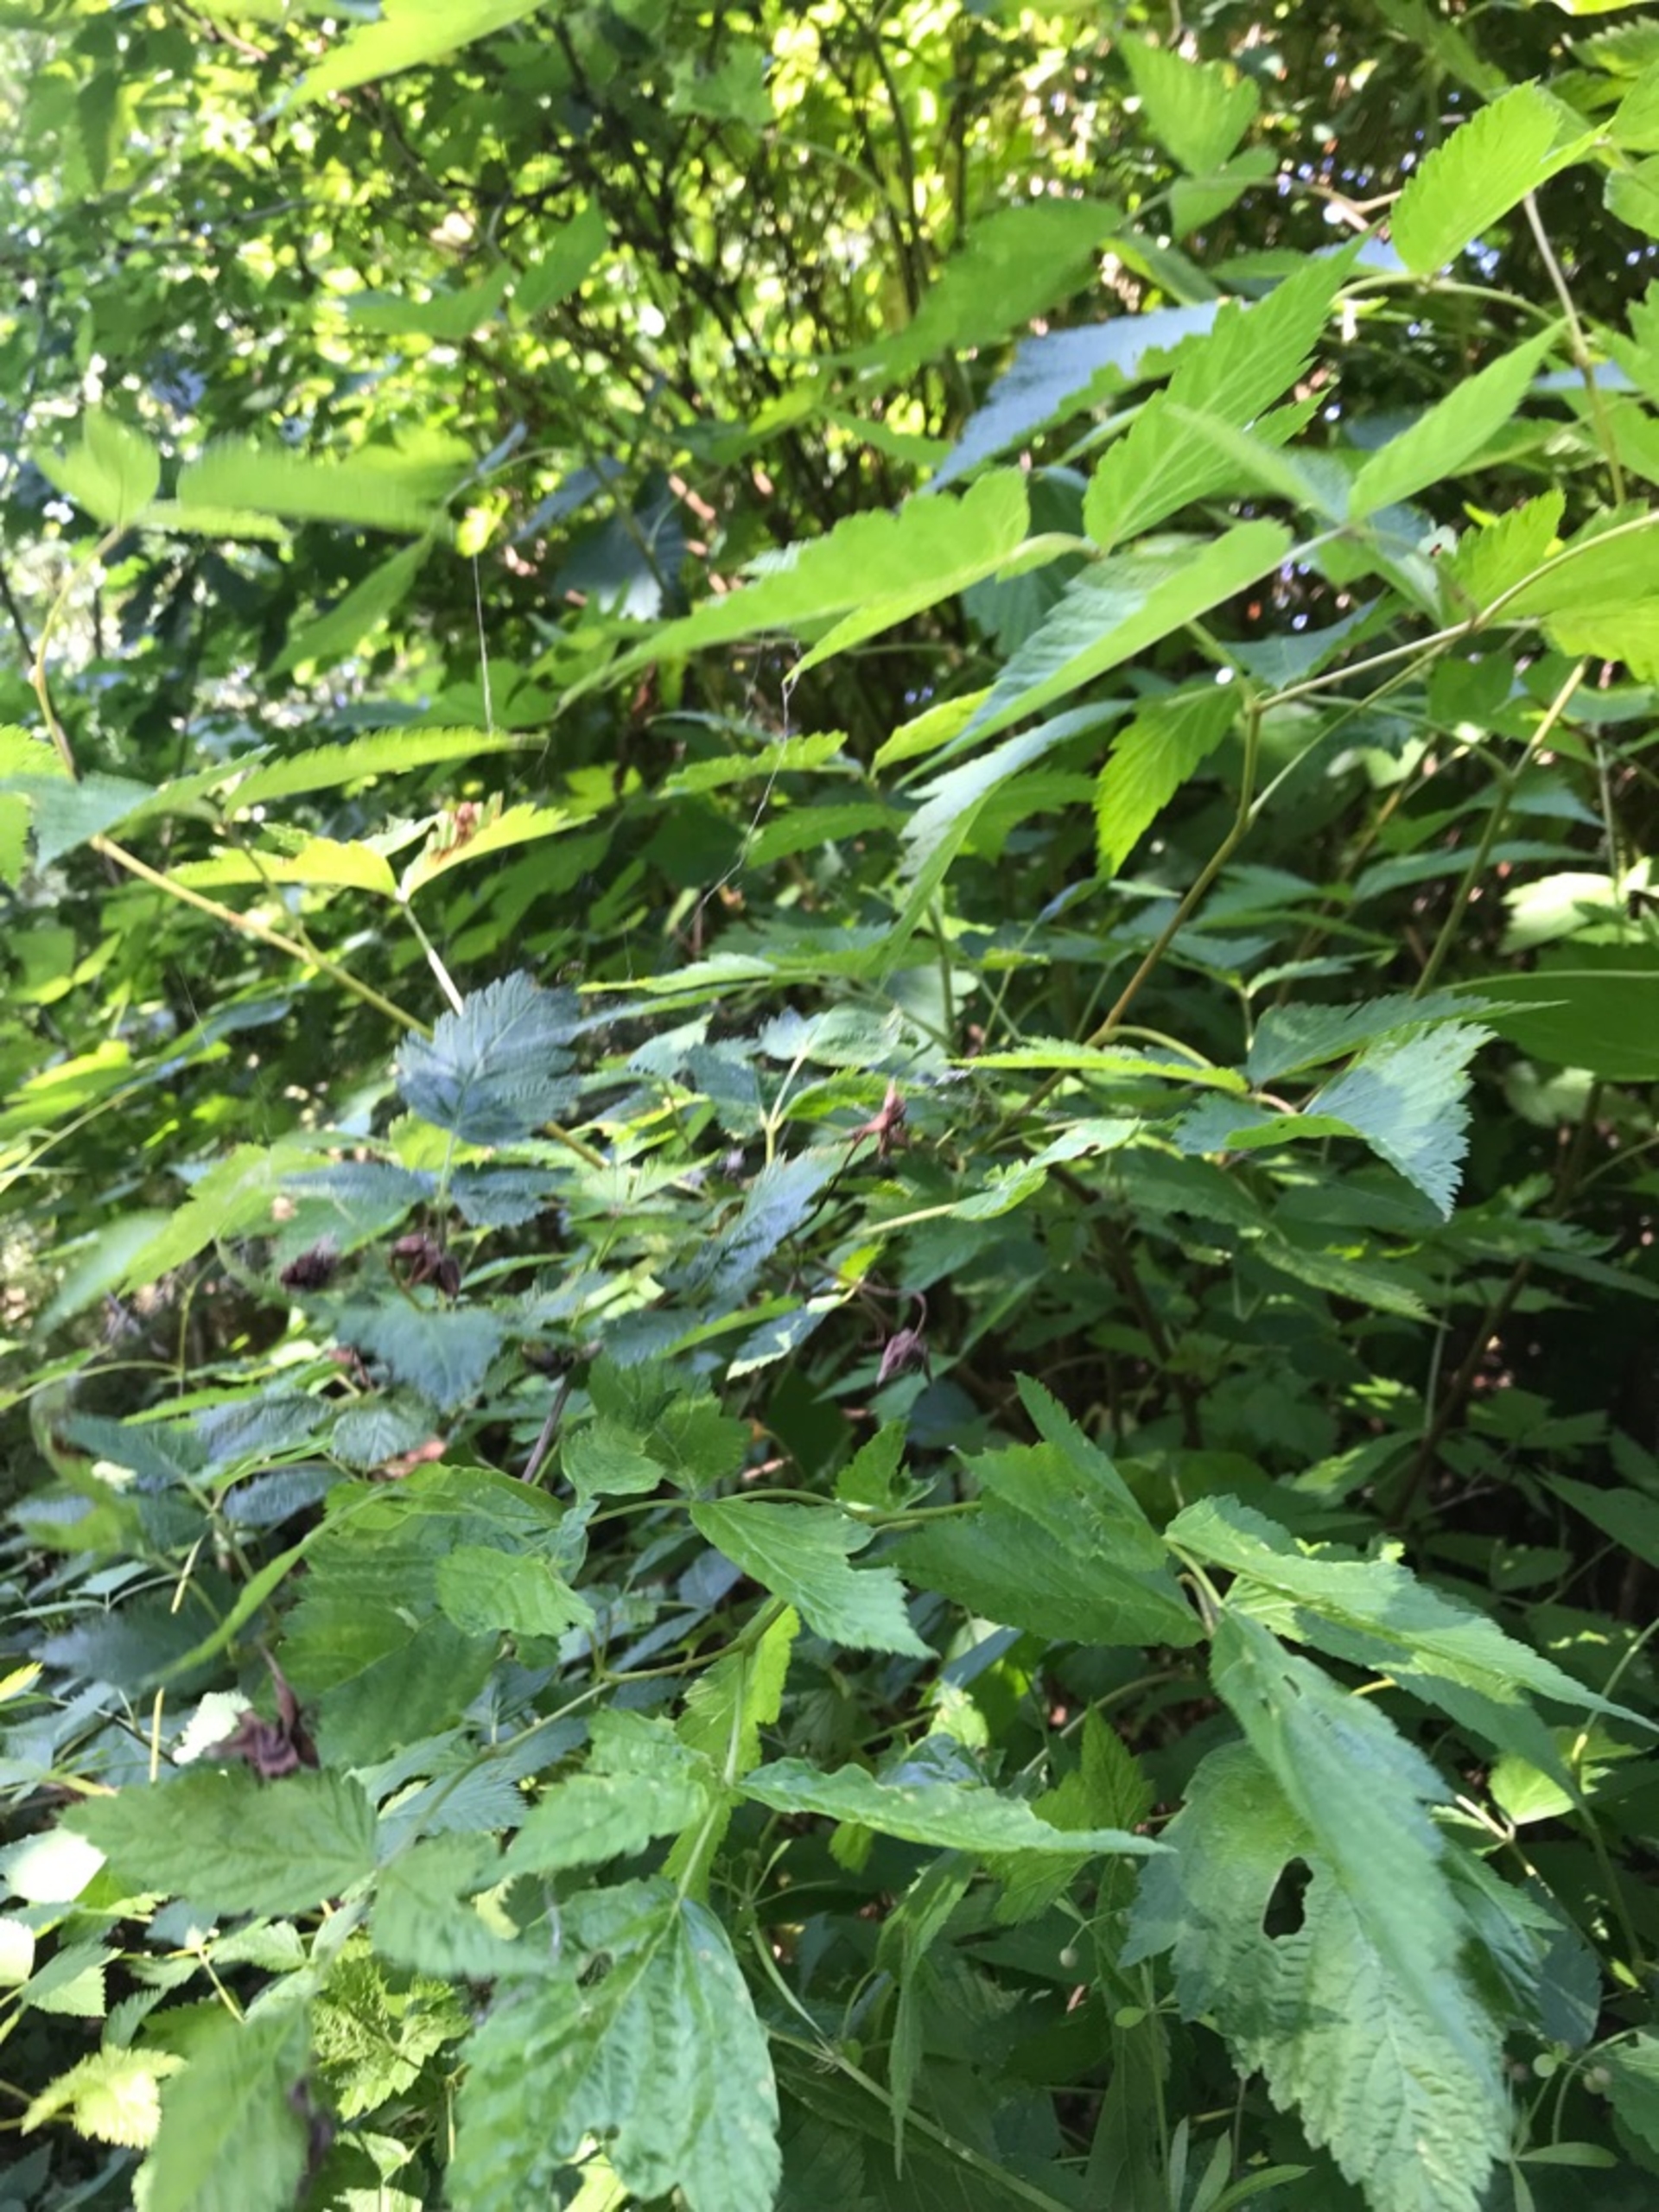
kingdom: Plantae
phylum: Tracheophyta
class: Magnoliopsida
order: Rosales
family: Rosaceae
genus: Rubus
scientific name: Rubus spectabilis
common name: Laksebær
